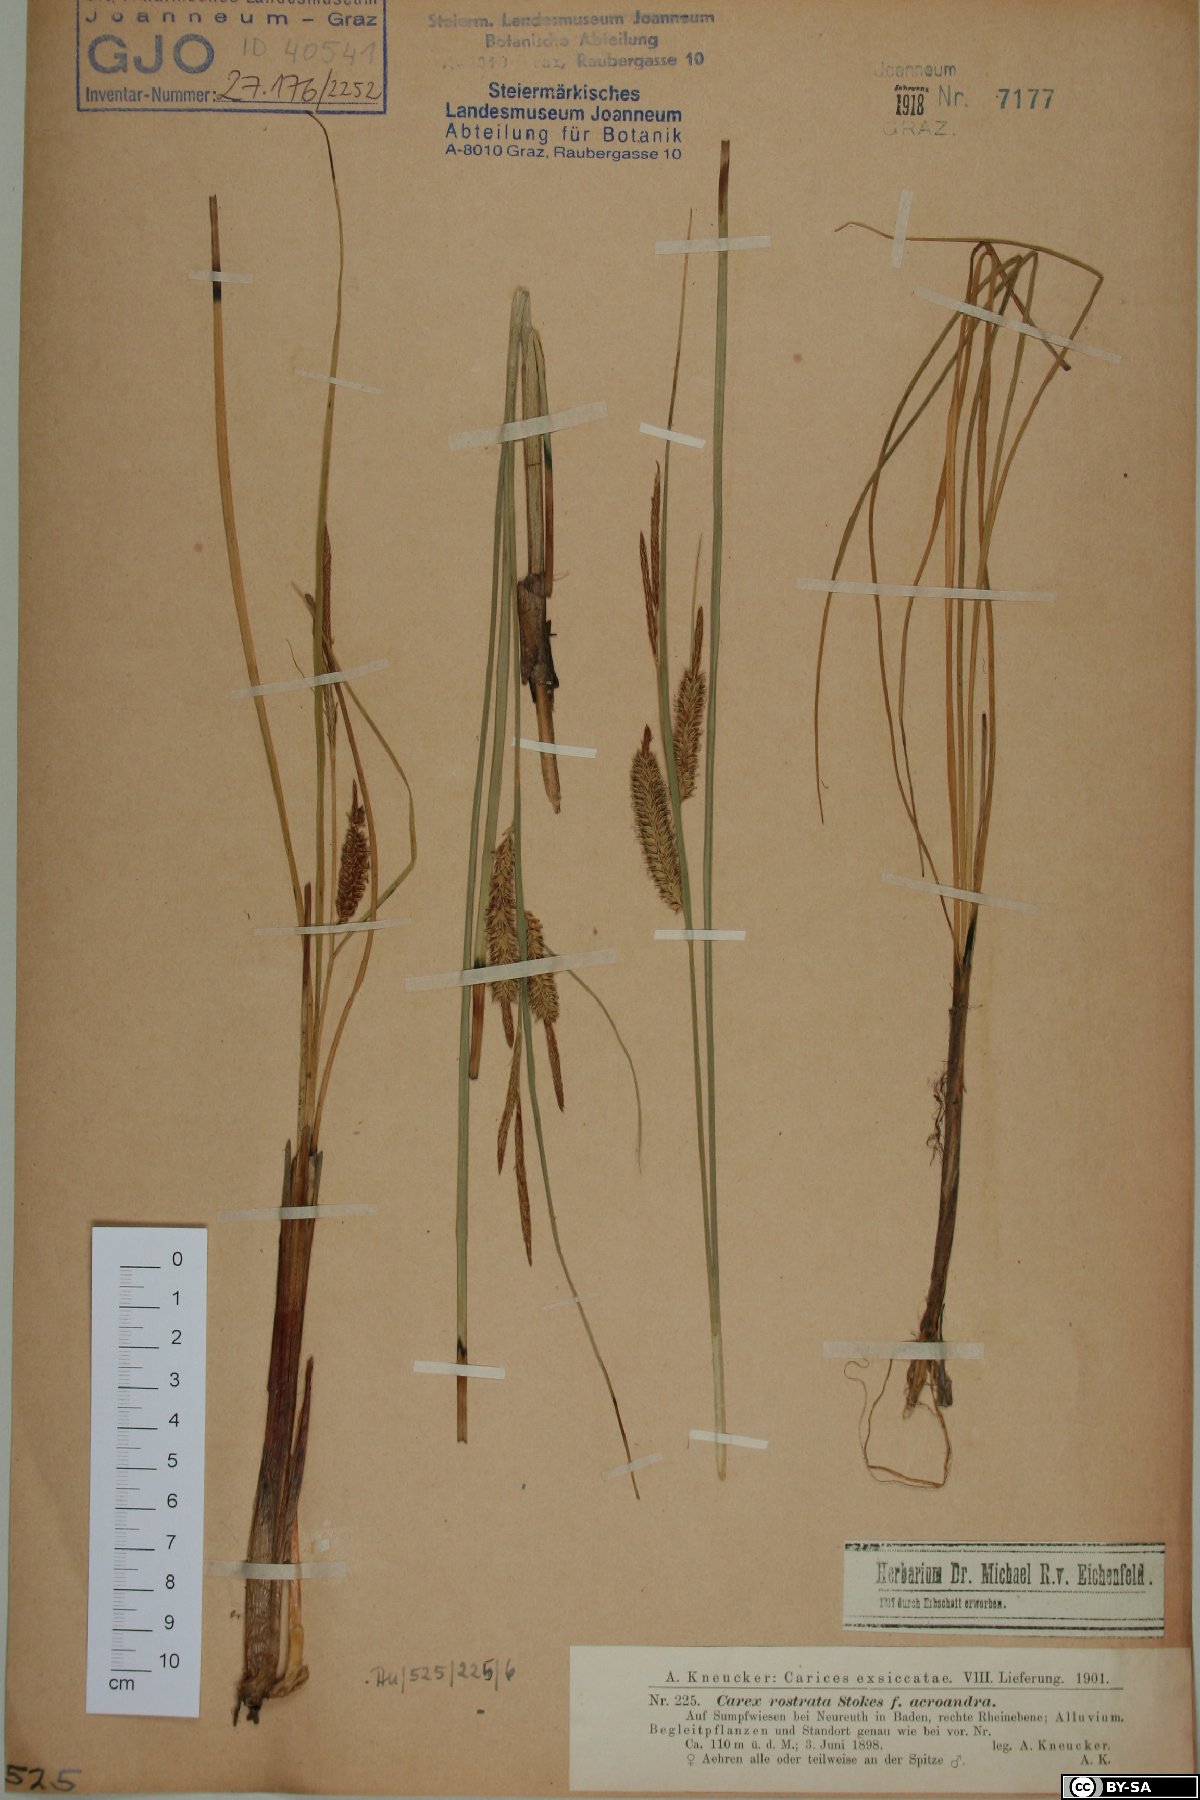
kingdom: Plantae
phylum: Tracheophyta
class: Liliopsida
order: Poales
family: Cyperaceae
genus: Carex
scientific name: Carex rostrata
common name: Bottle sedge
